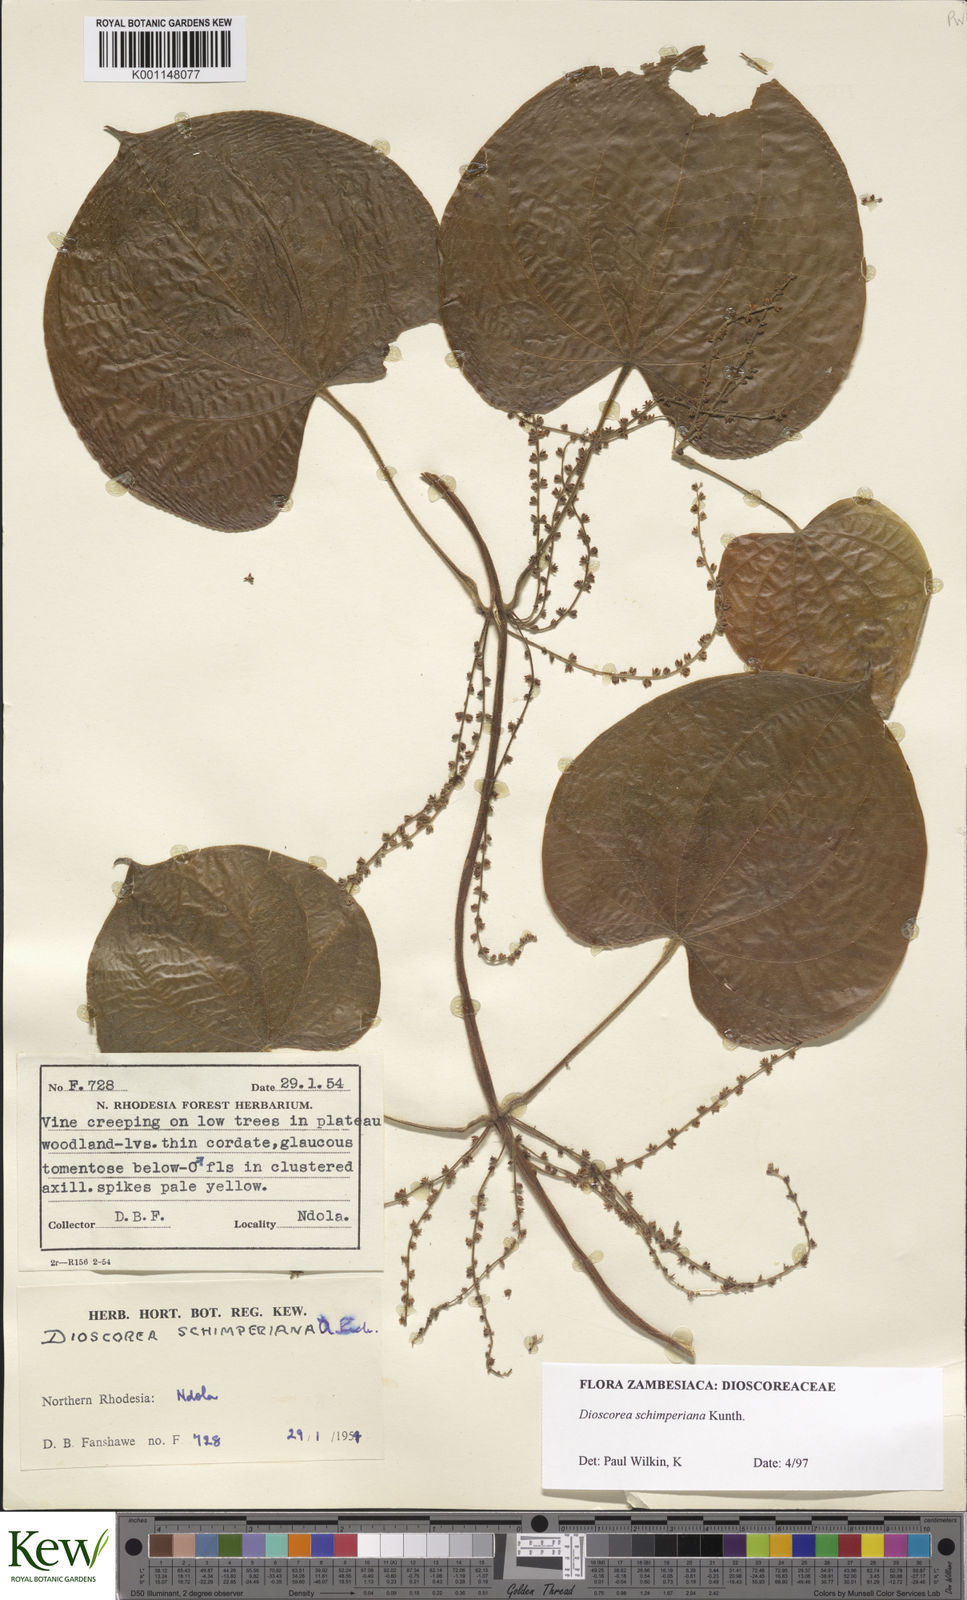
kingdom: Plantae
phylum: Tracheophyta
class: Liliopsida
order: Dioscoreales
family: Dioscoreaceae
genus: Dioscorea
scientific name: Dioscorea schimperiana
